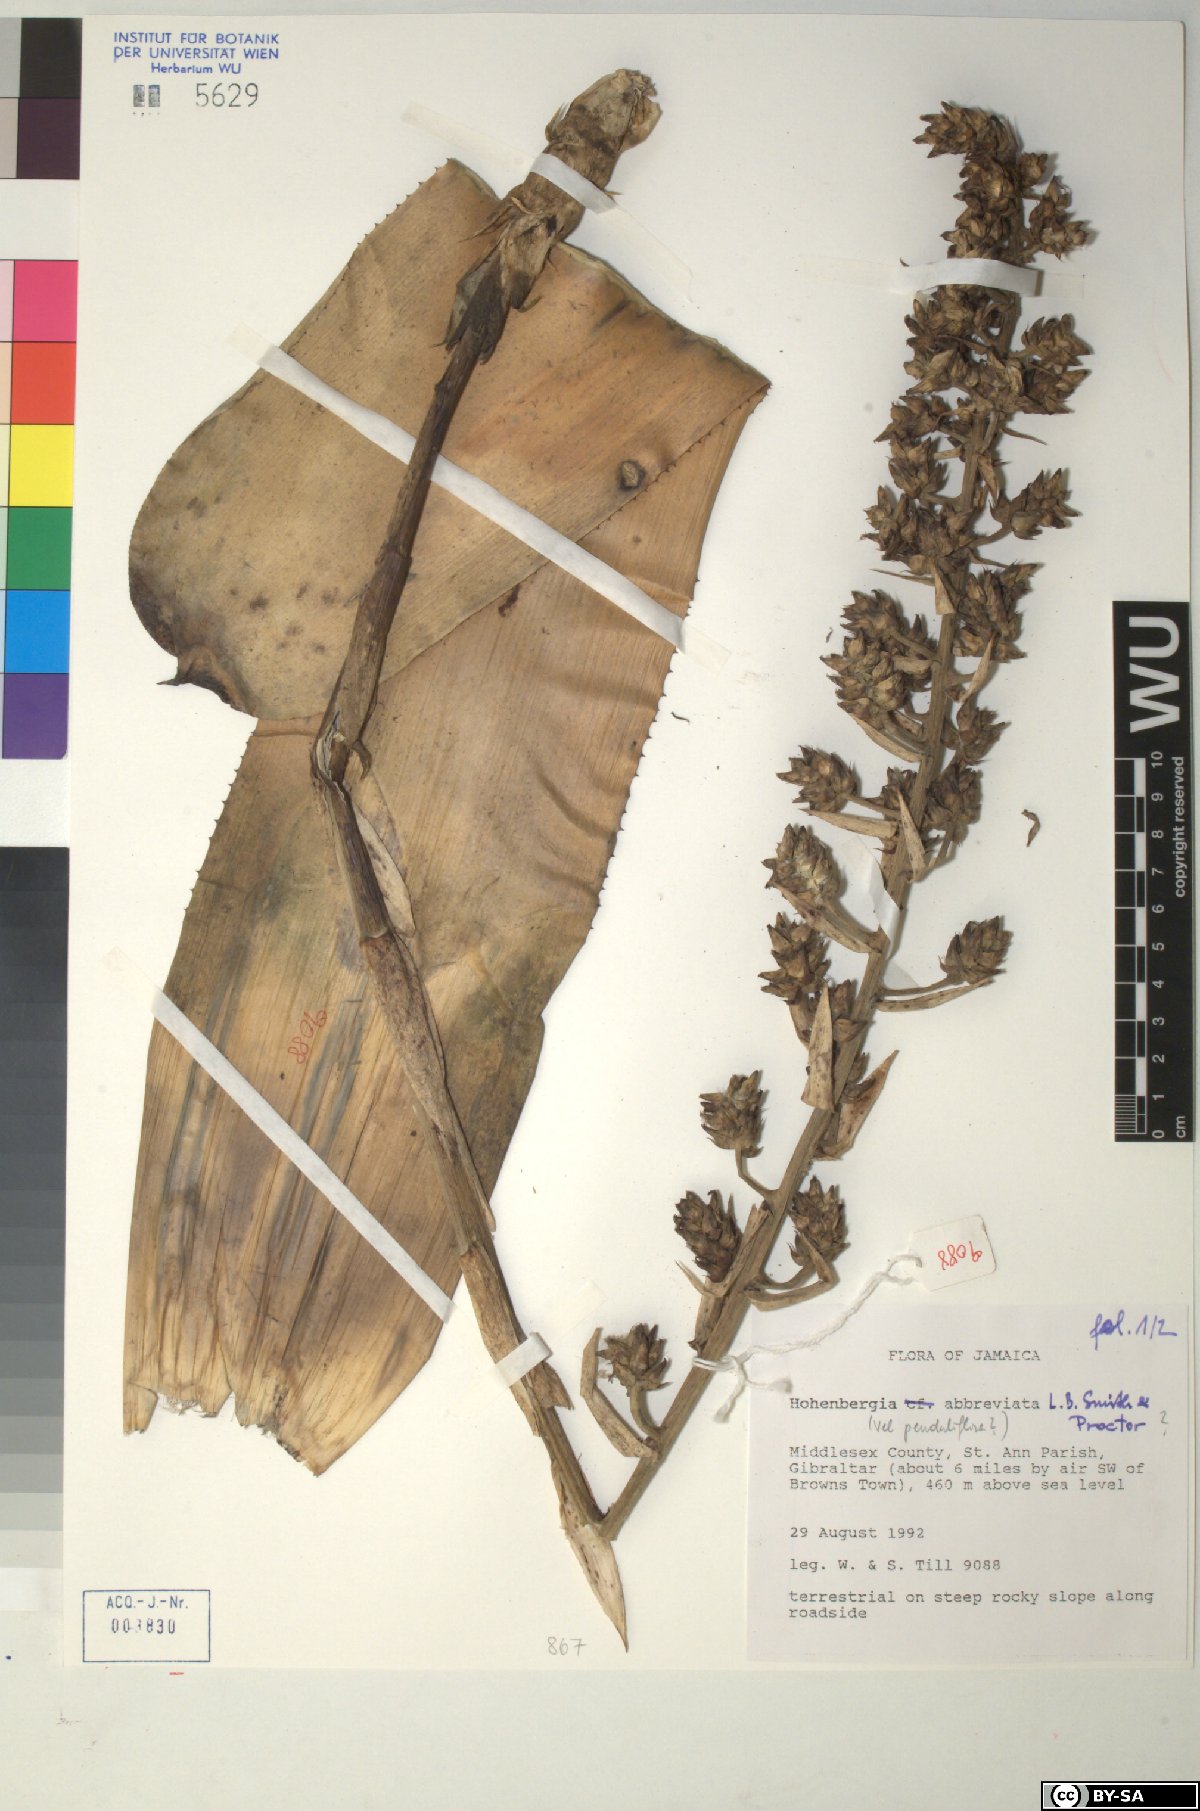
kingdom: Plantae
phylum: Tracheophyta
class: Liliopsida
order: Poales
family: Bromeliaceae
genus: Wittmackia
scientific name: Wittmackia abbreviata
